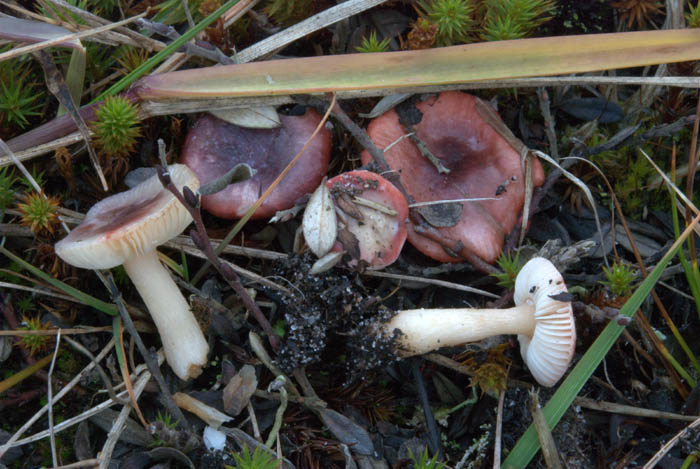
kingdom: Fungi
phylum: Basidiomycota
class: Agaricomycetes
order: Russulales
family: Russulaceae
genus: Russula
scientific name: Russula laccata
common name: klit-skørhat
